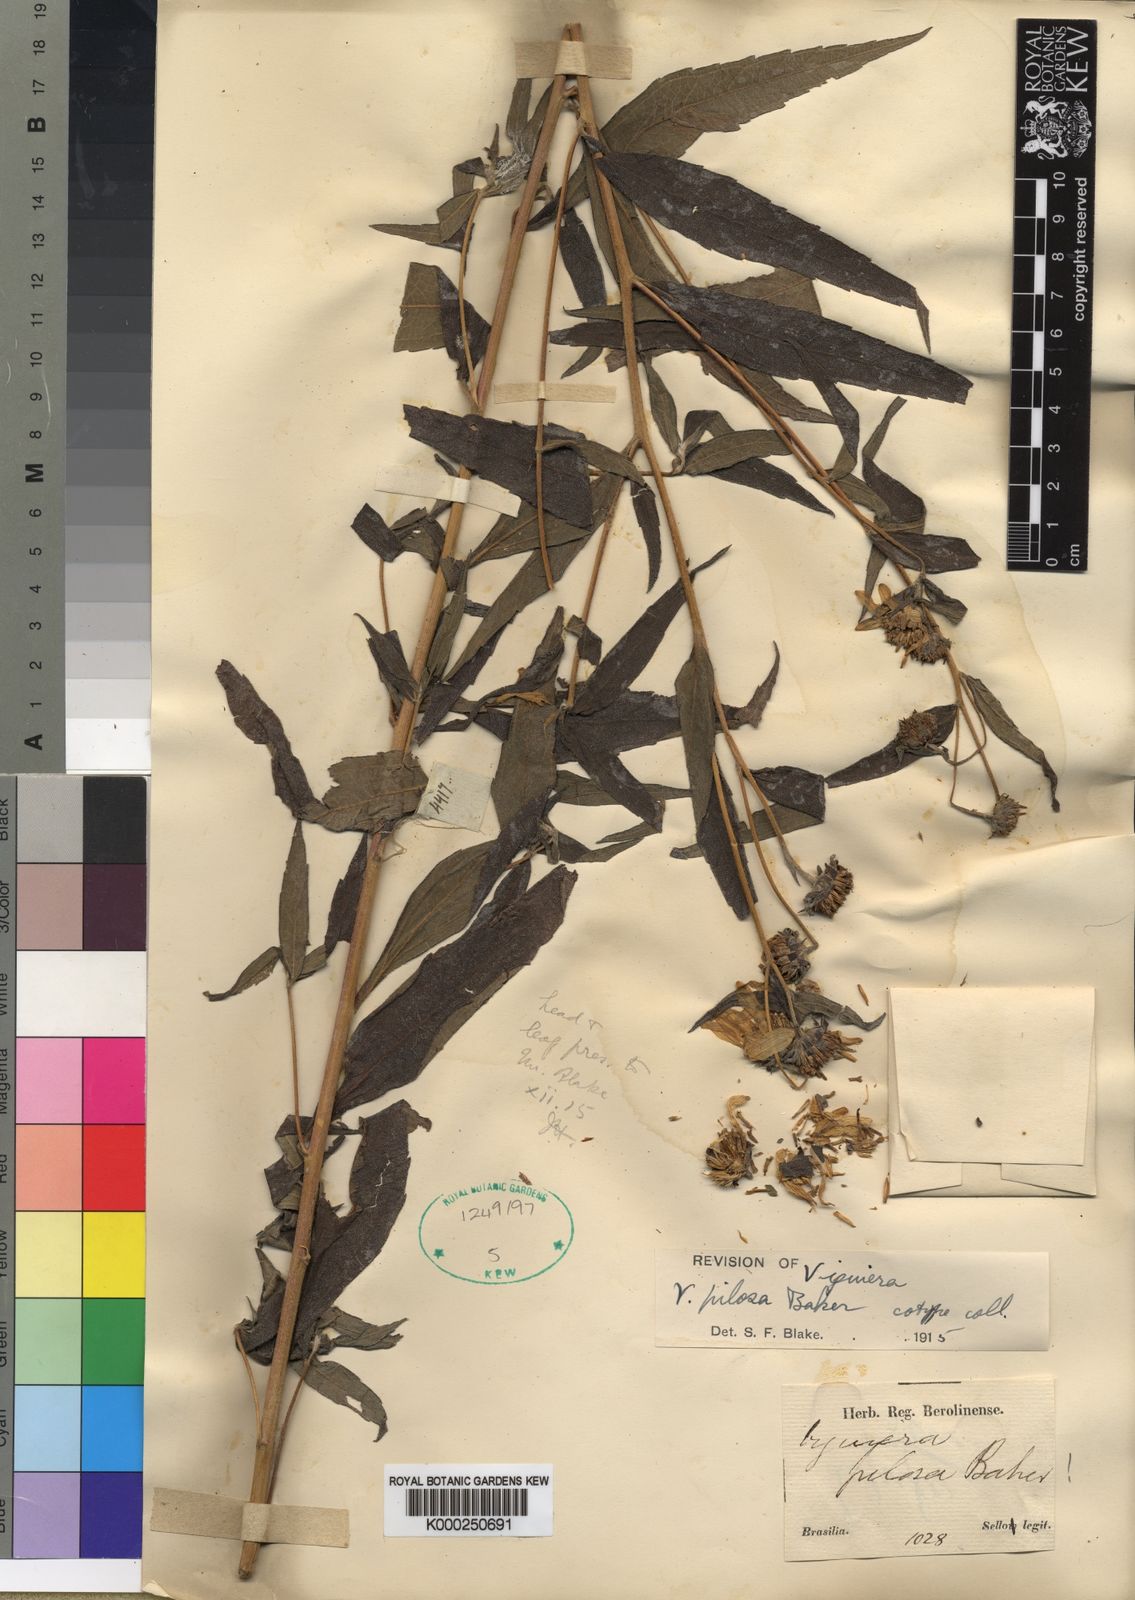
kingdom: Plantae
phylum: Tracheophyta
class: Magnoliopsida
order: Asterales
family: Asteraceae
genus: Aldama
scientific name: Aldama pilosa
